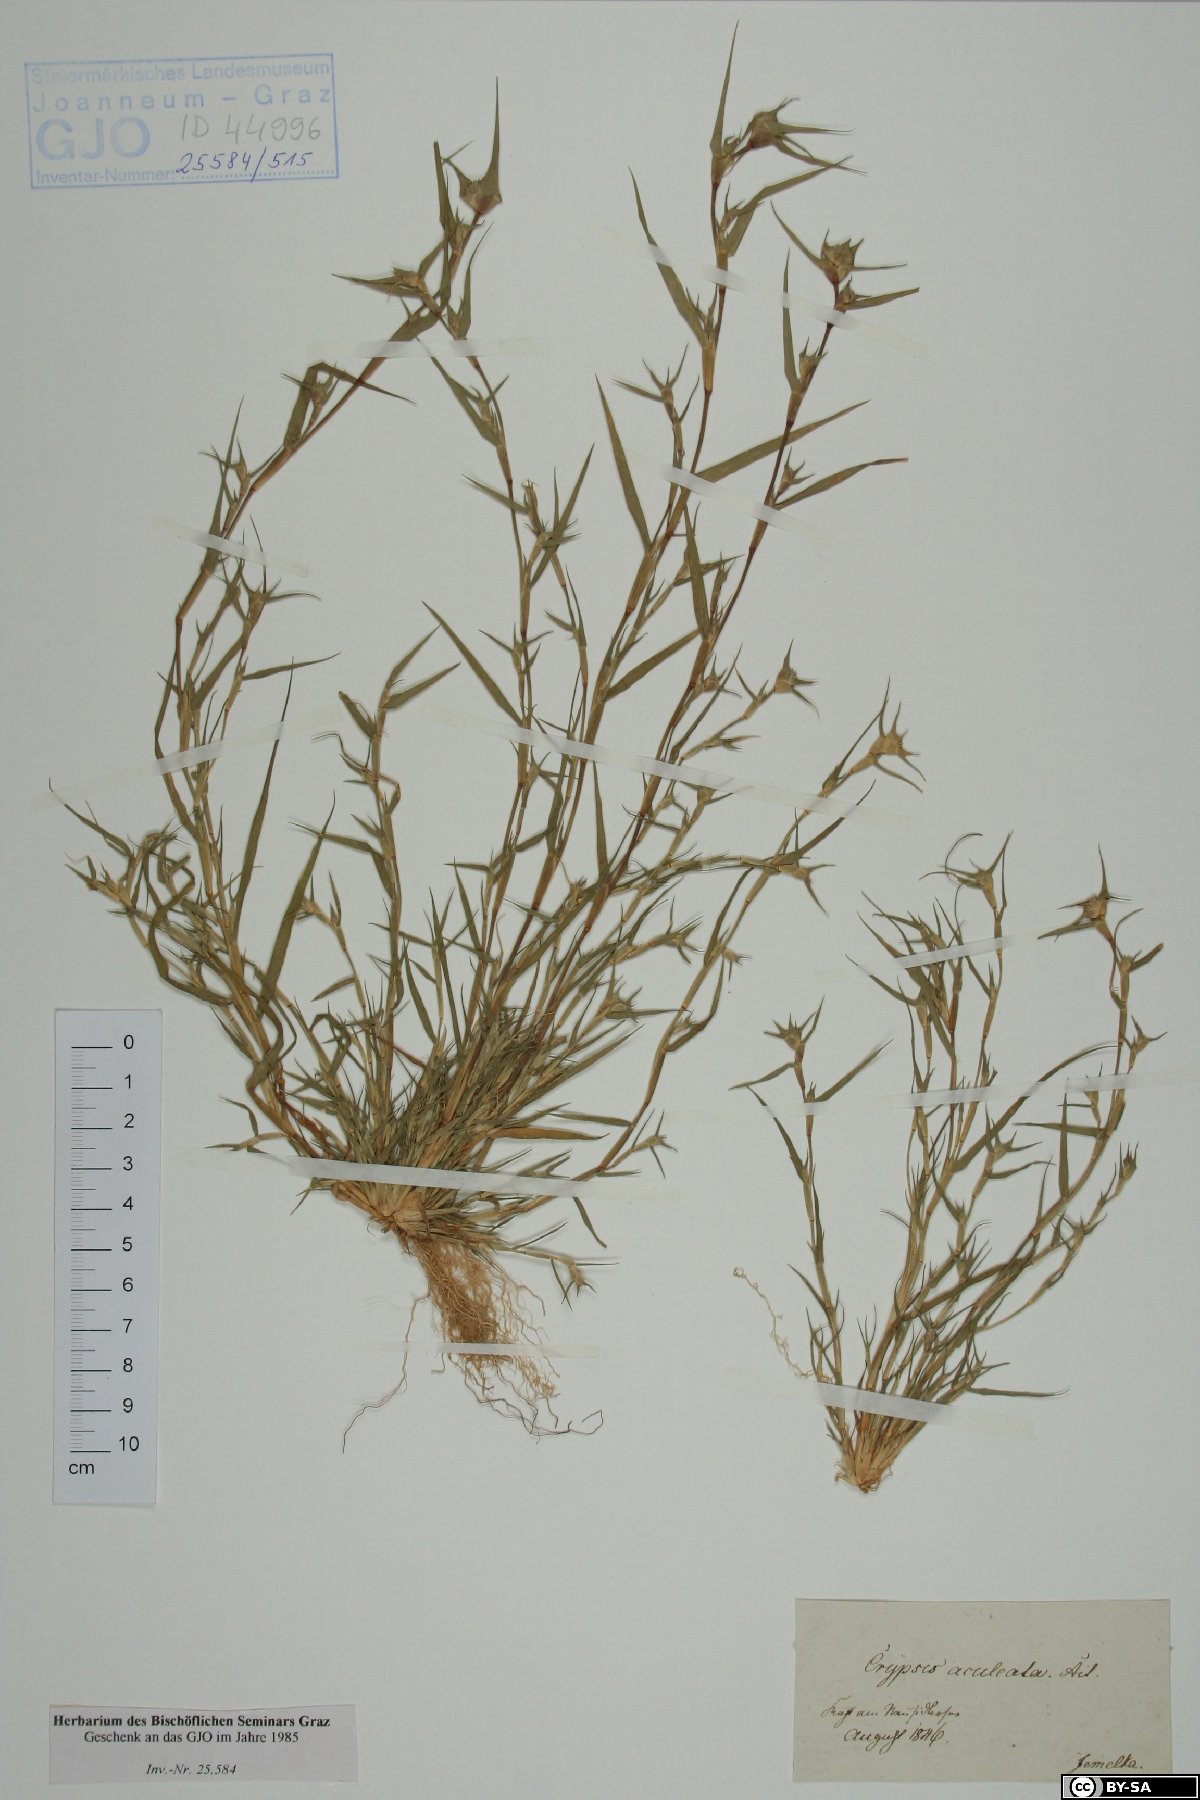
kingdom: Plantae
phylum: Tracheophyta
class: Liliopsida
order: Poales
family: Poaceae
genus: Sporobolus
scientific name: Sporobolus aculeatus
